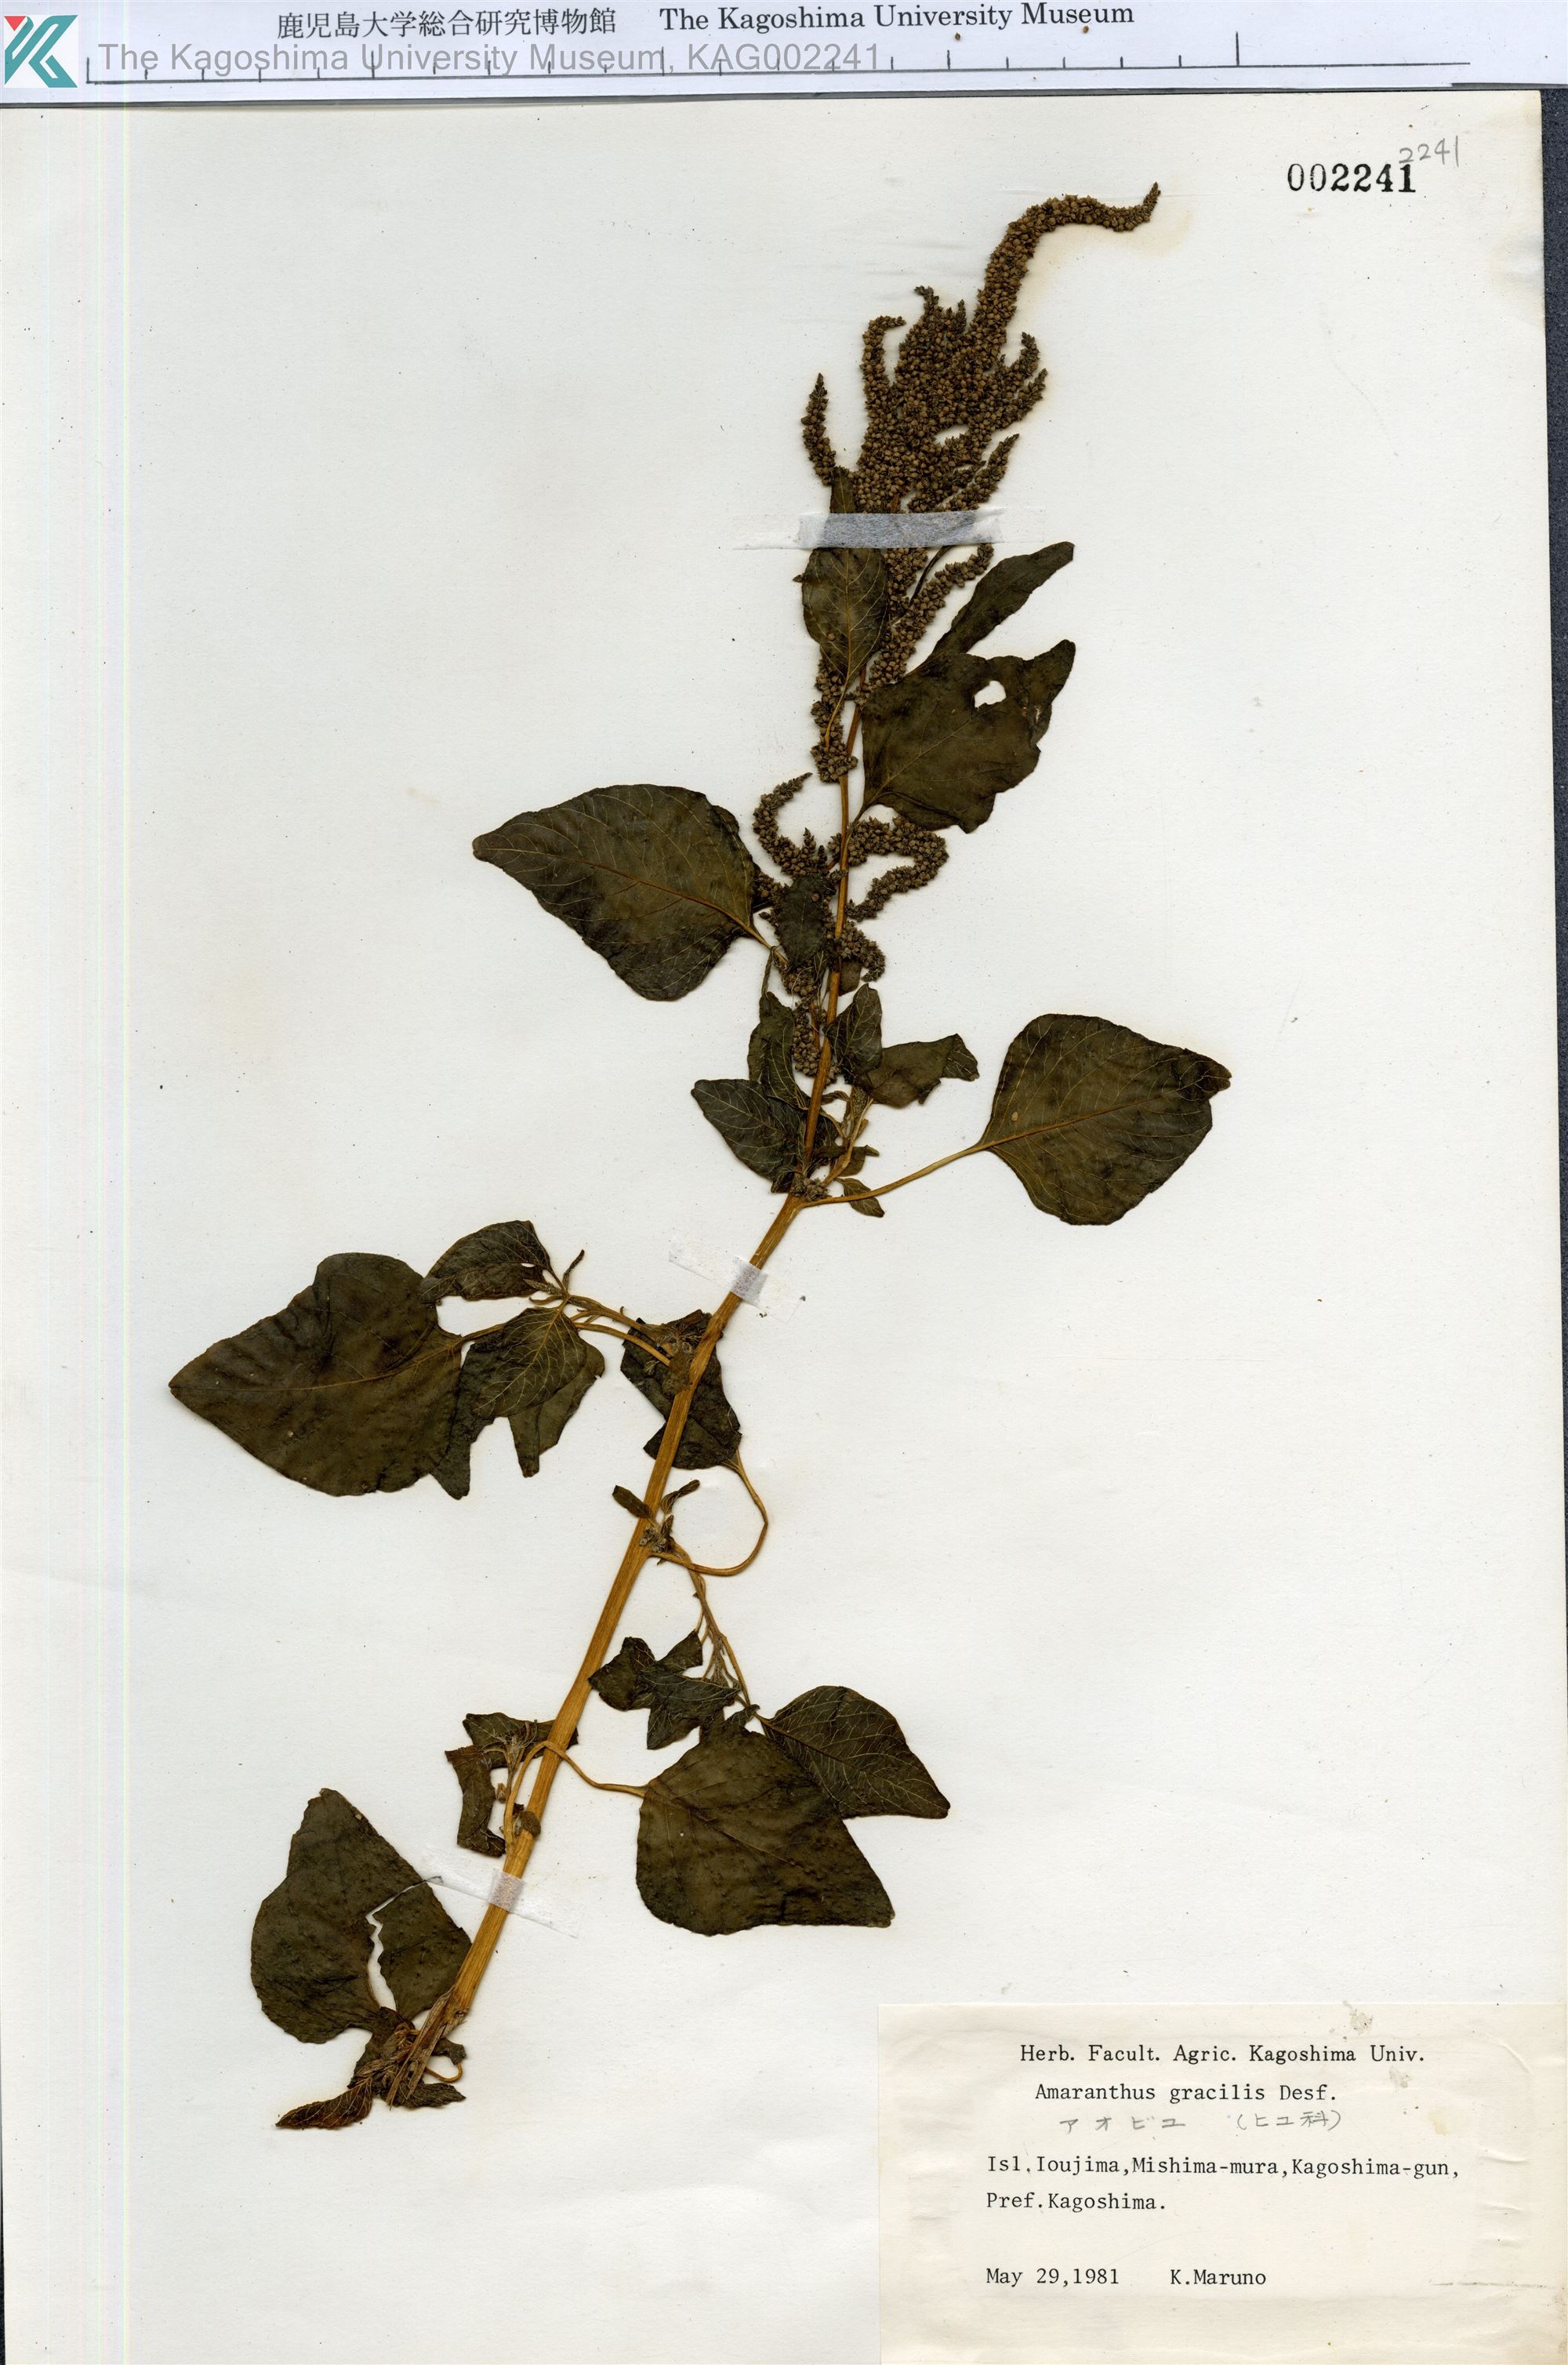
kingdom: Plantae
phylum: Tracheophyta
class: Magnoliopsida
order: Caryophyllales
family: Amaranthaceae
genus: Amaranthus
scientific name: Amaranthus viridis
